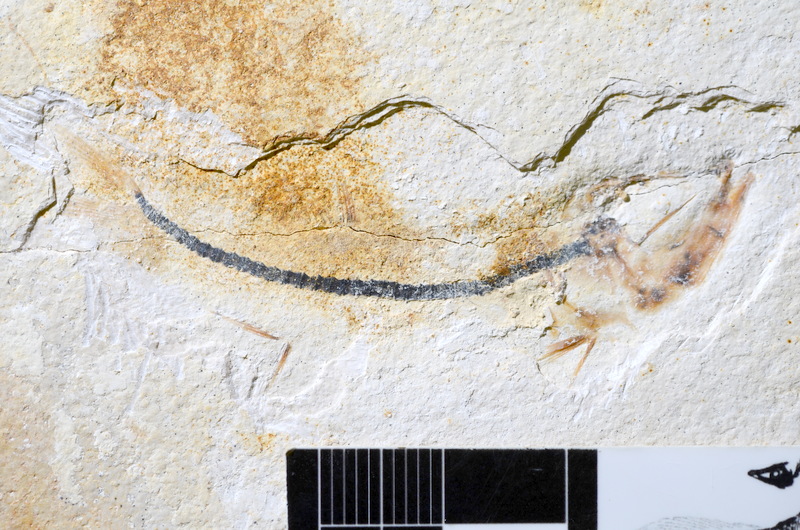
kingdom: Animalia
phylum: Chordata
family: Ascalaboidae
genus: Ebertichthys
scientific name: Ebertichthys ettlingensis
